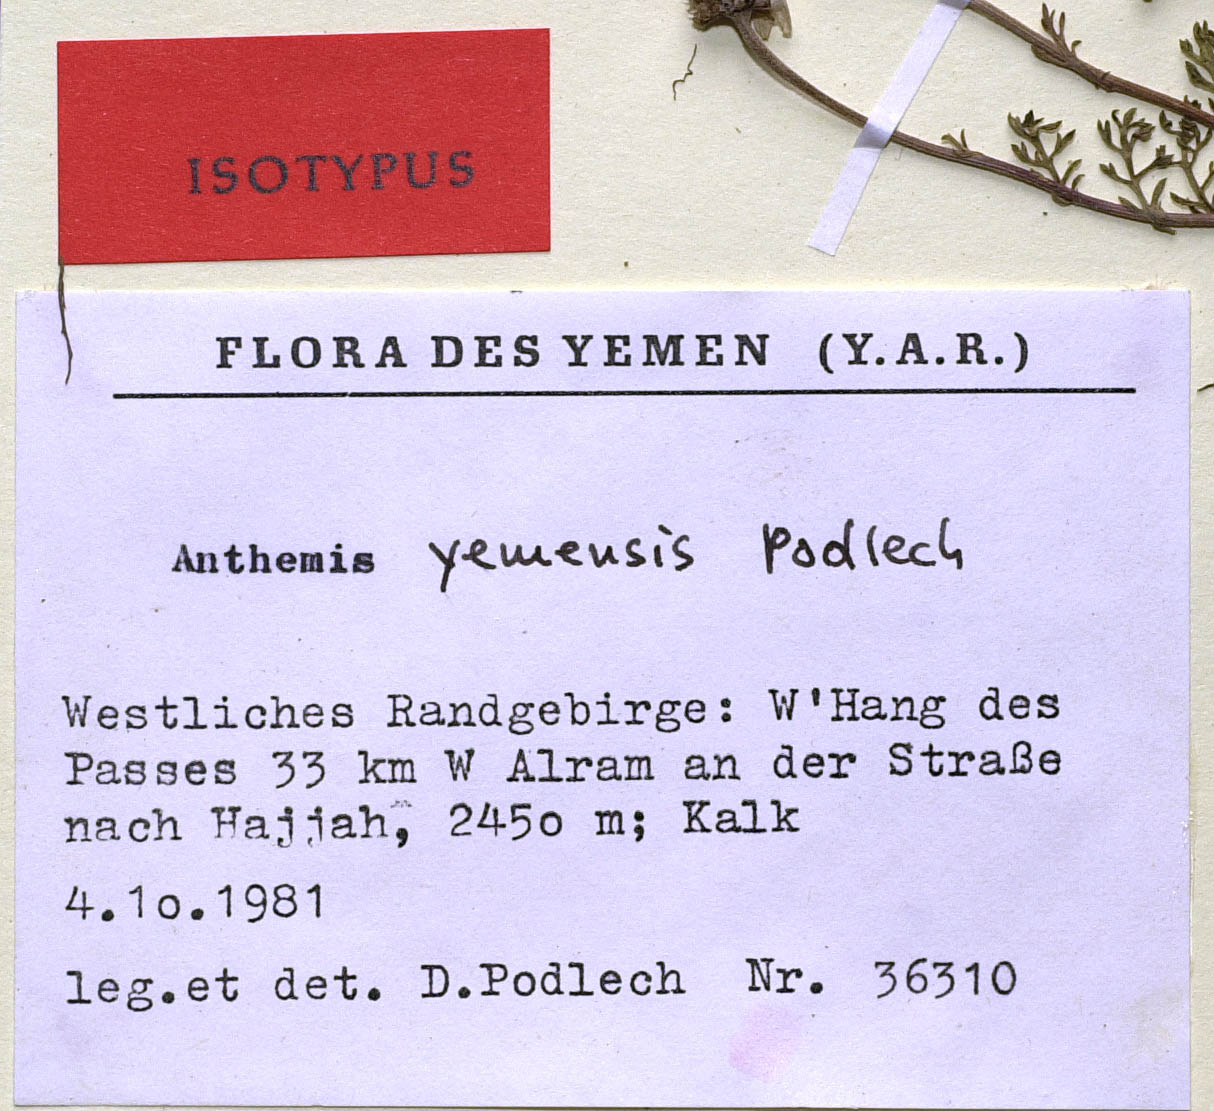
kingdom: Plantae
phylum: Tracheophyta
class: Magnoliopsida
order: Asterales
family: Asteraceae
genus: Anthemis
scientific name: Anthemis yemensis
